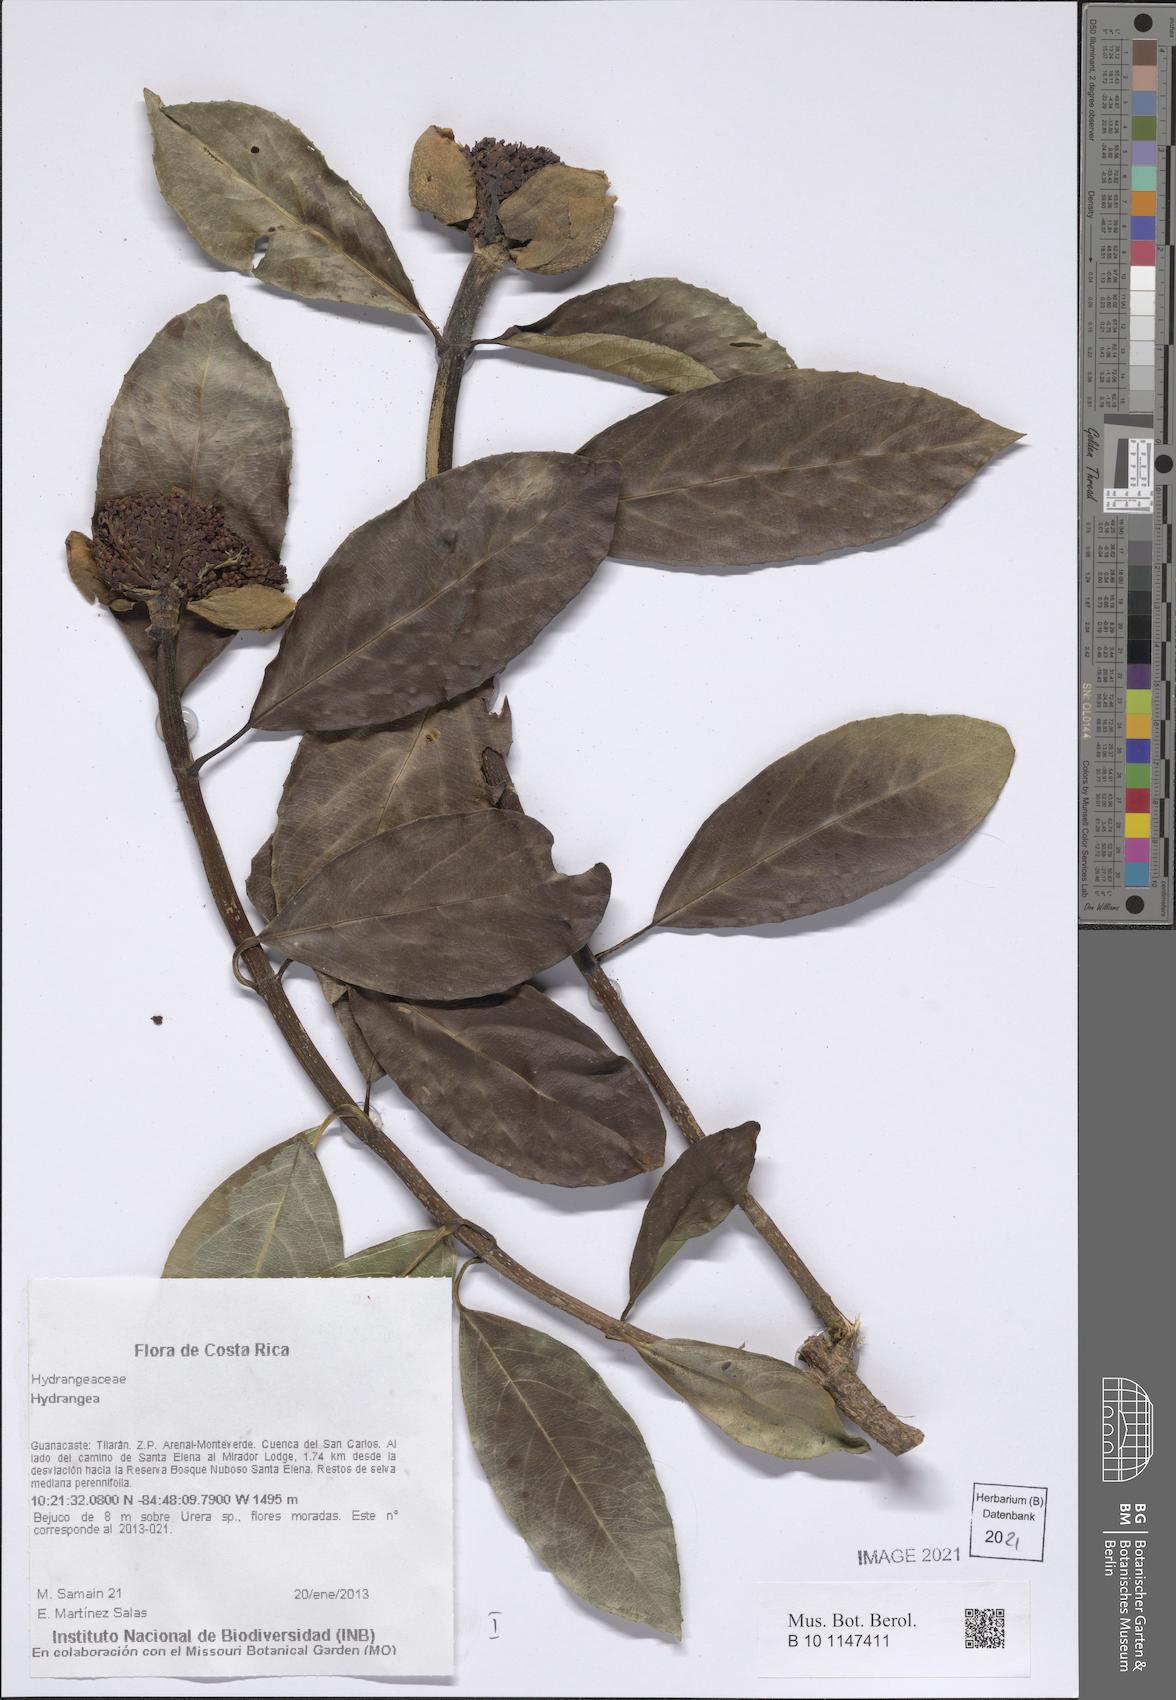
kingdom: Plantae
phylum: Tracheophyta
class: Magnoliopsida
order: Cornales
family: Hydrangeaceae
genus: Hydrangea
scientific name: Hydrangea
